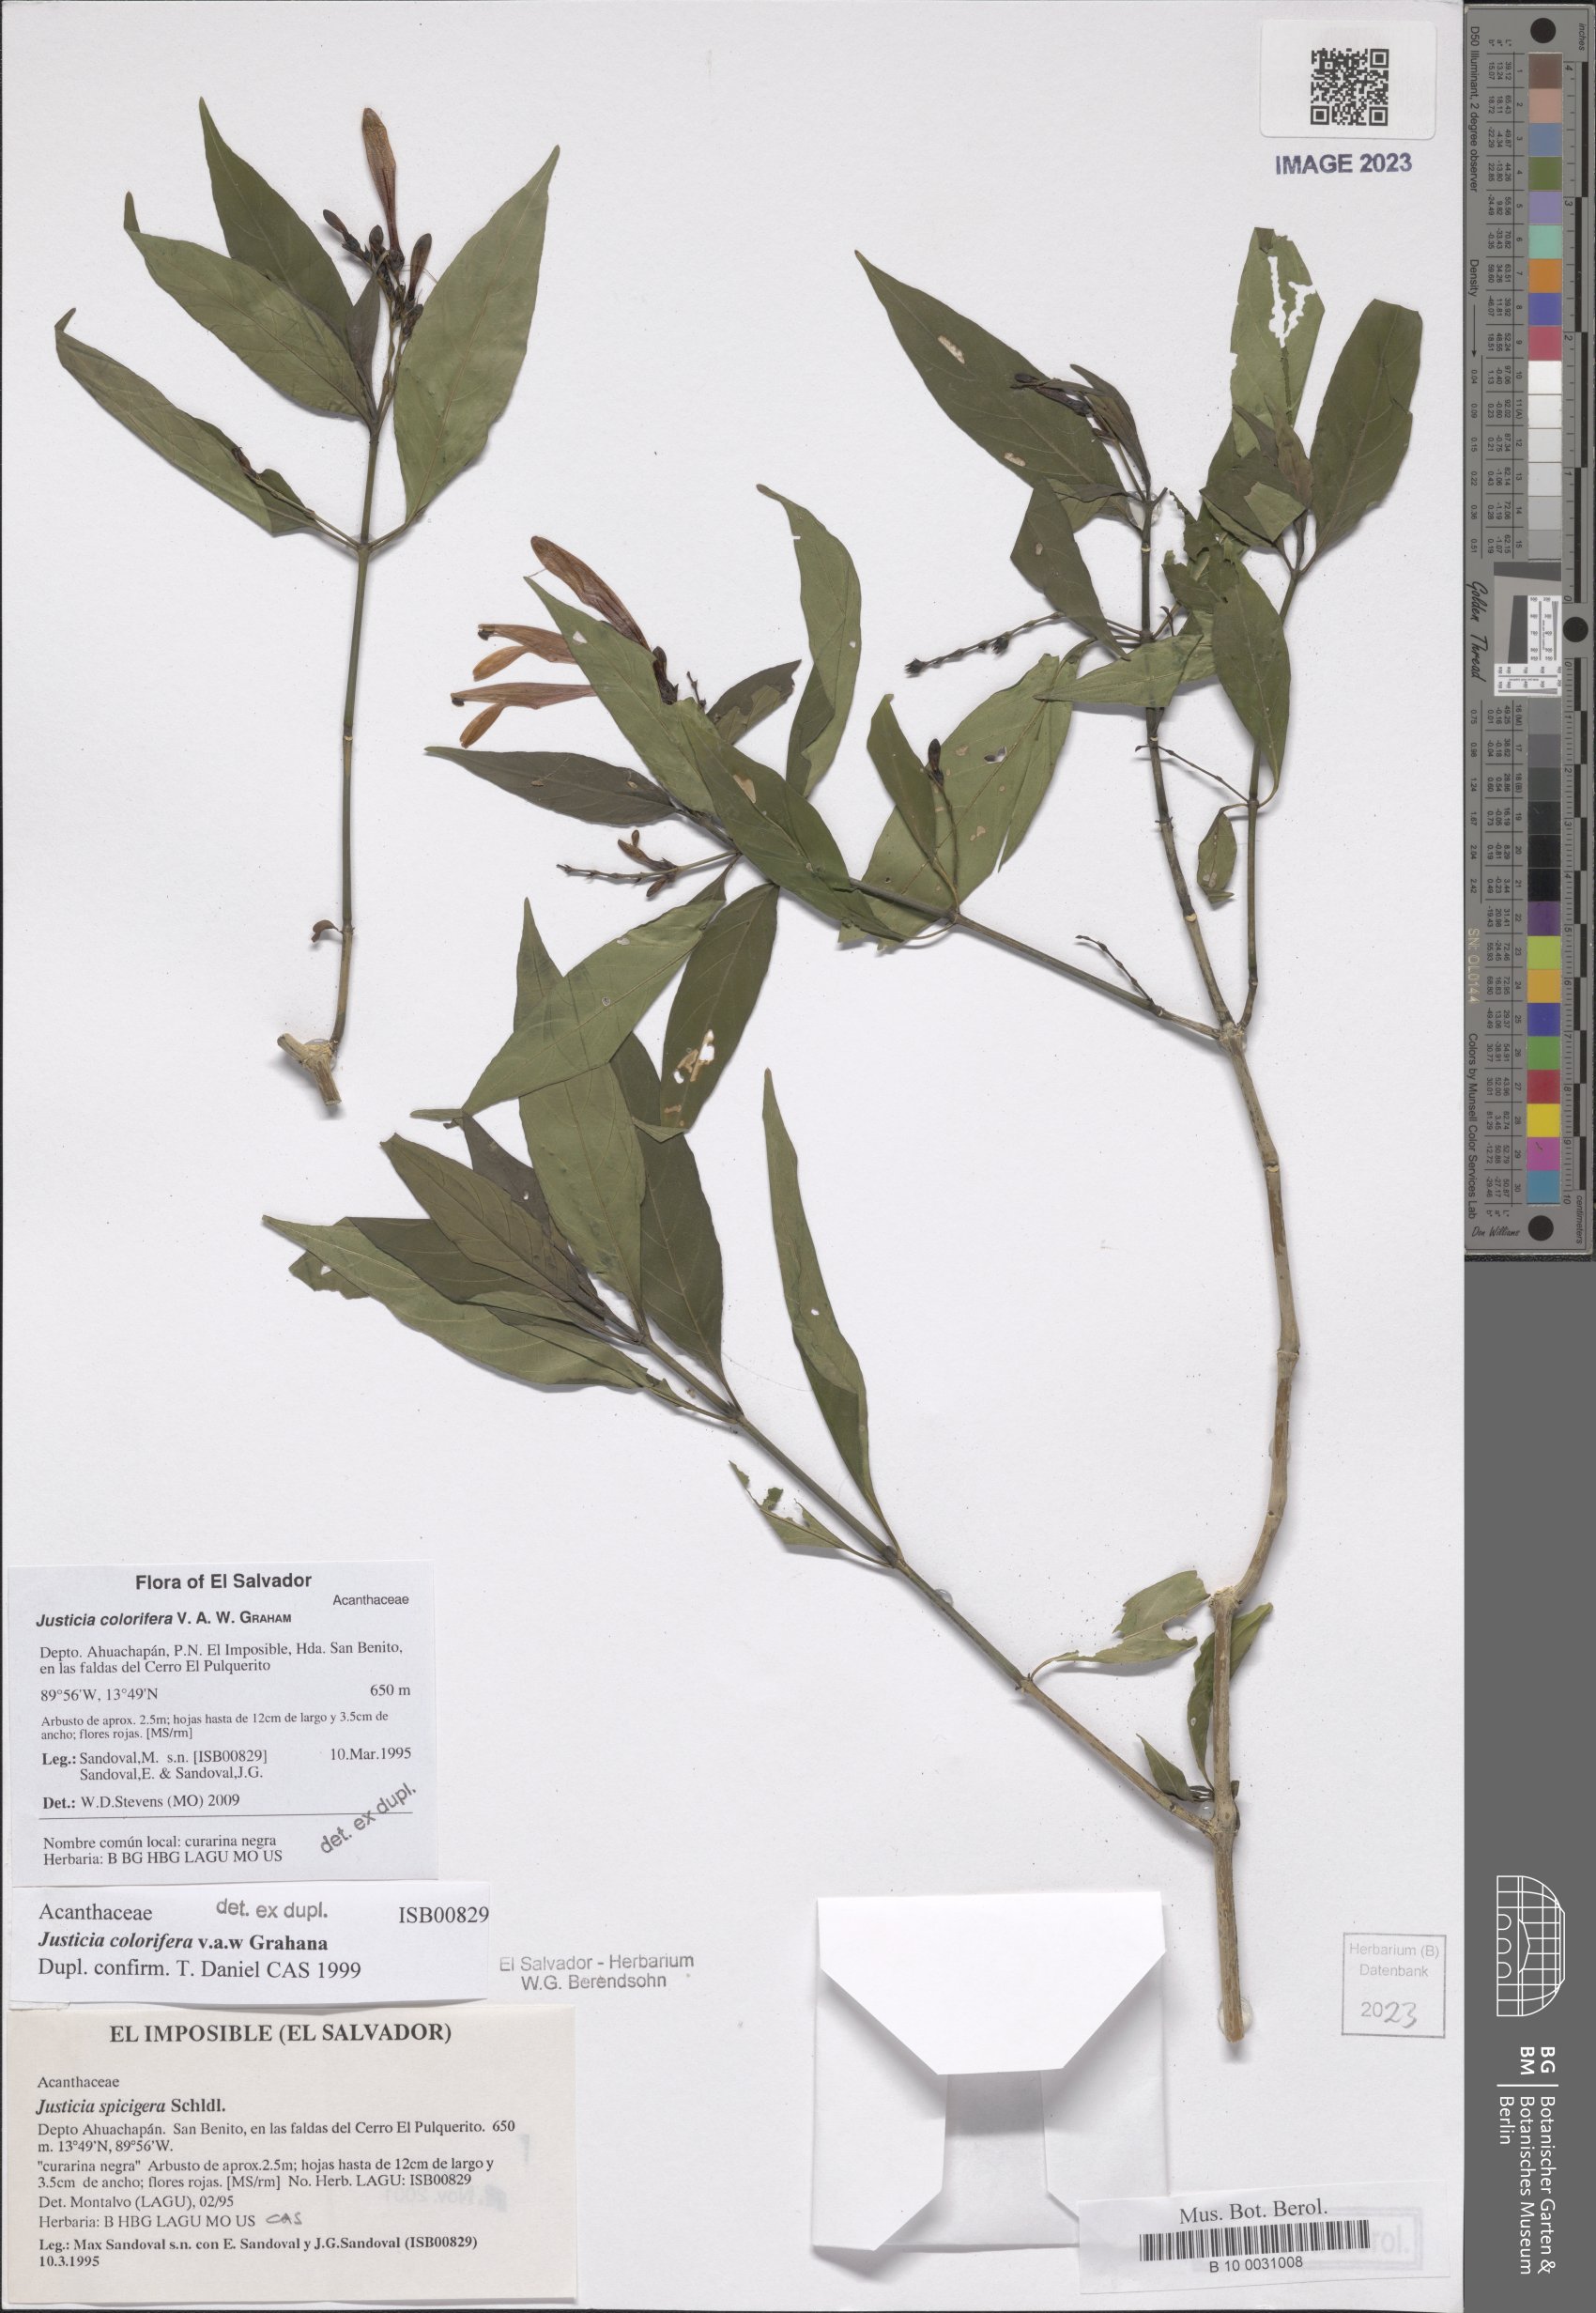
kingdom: Plantae
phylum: Tracheophyta
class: Magnoliopsida
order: Lamiales
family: Acanthaceae
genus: Justicia
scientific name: Justicia tinctoriella
